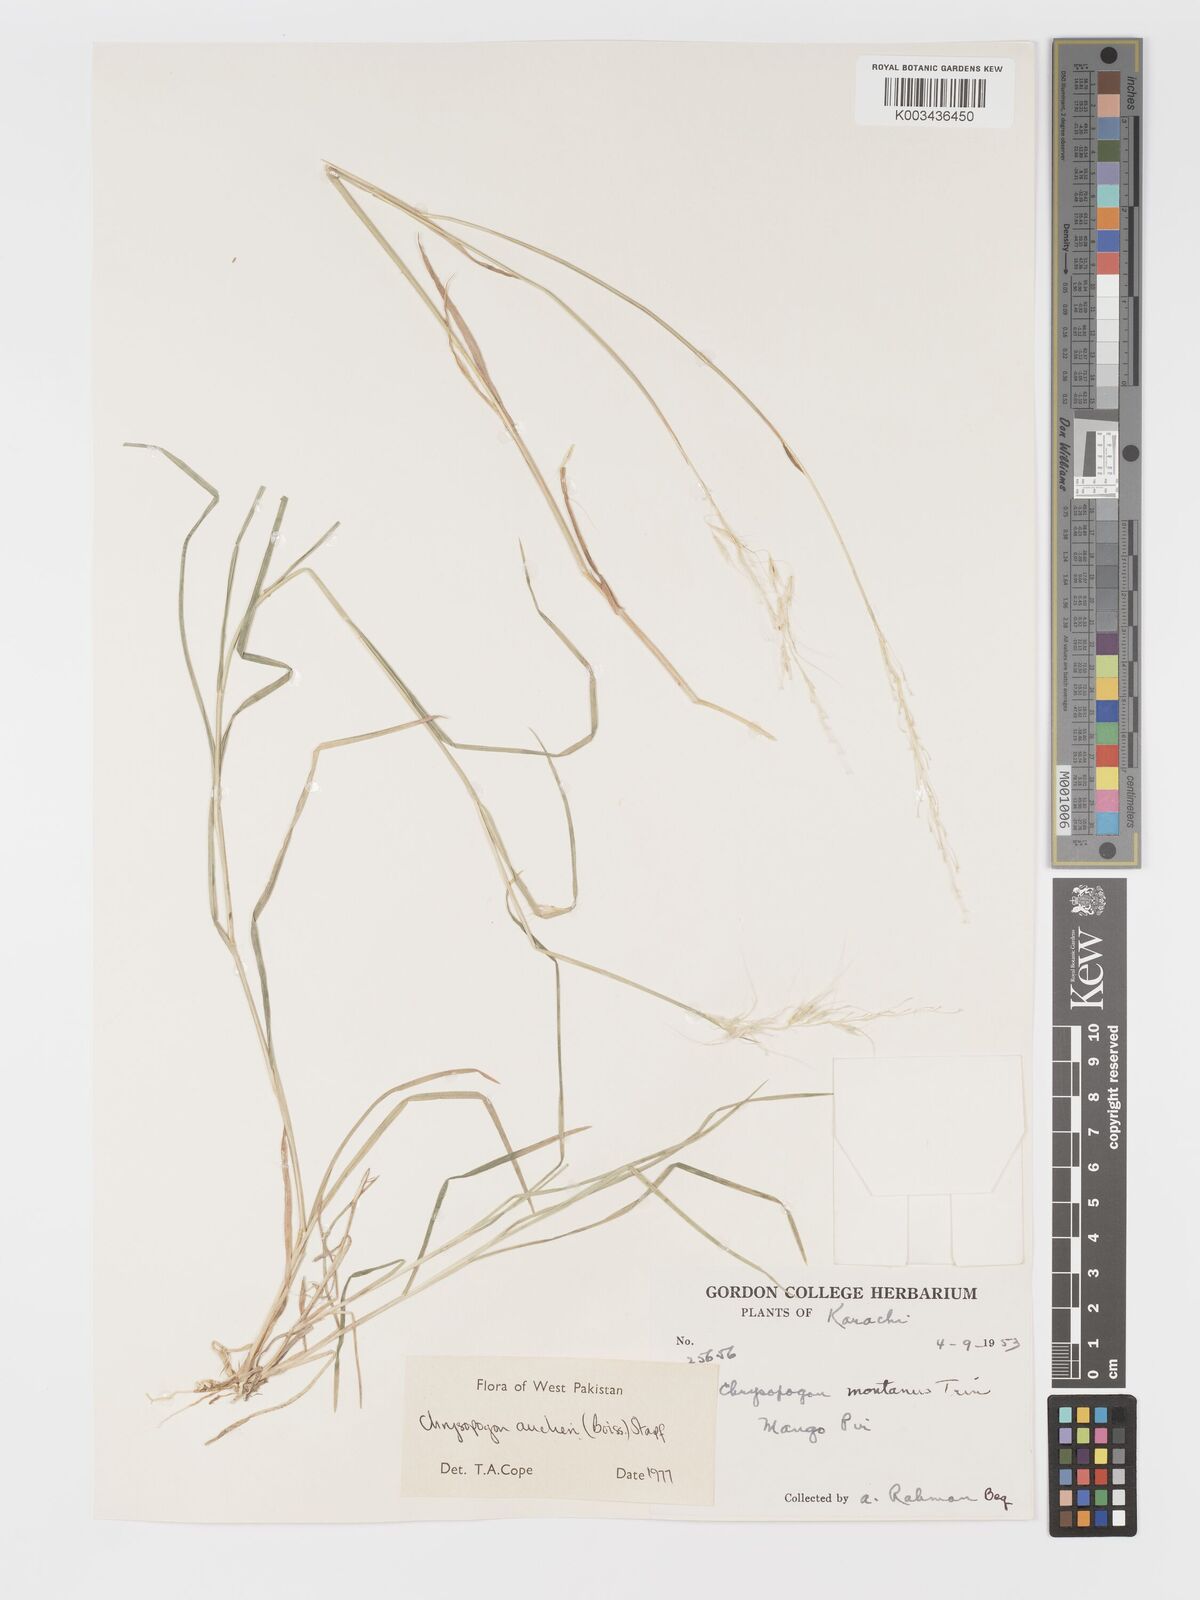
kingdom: Plantae
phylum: Tracheophyta
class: Liliopsida
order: Poales
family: Poaceae
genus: Chrysopogon
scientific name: Chrysopogon aucheri
